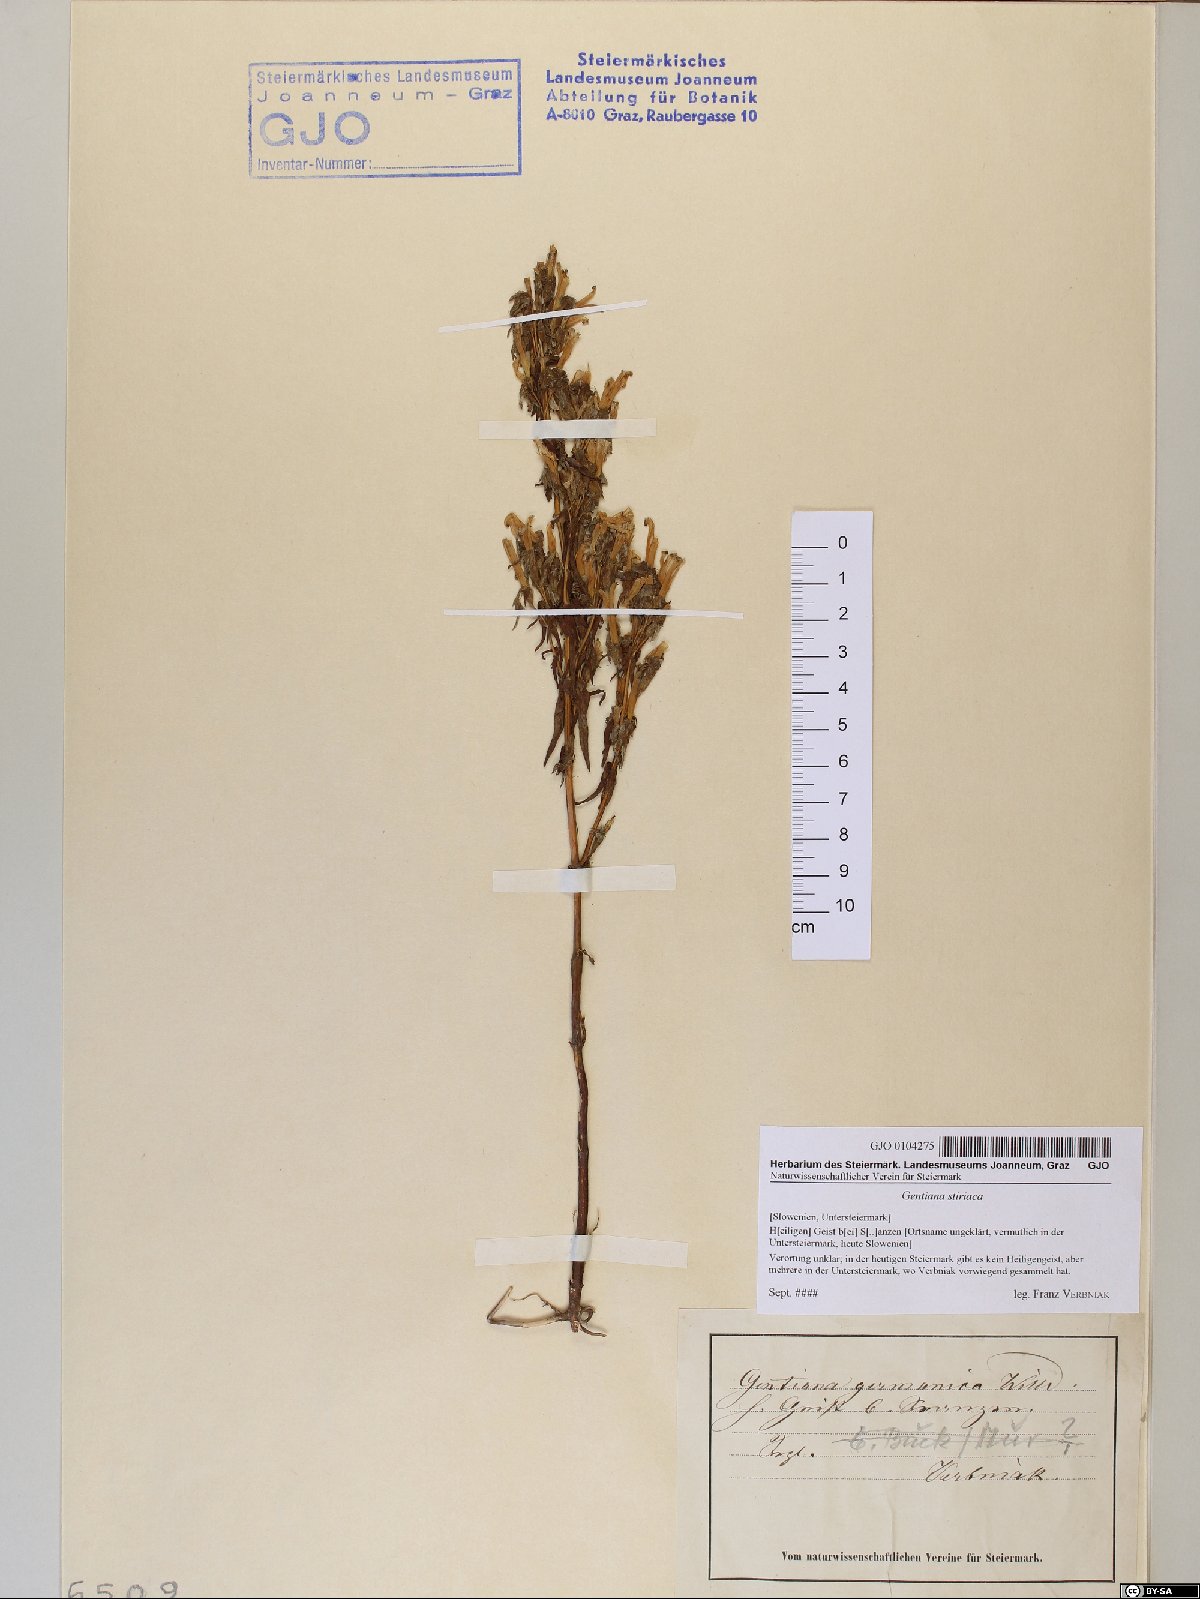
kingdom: Plantae
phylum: Tracheophyta
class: Magnoliopsida
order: Gentianales
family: Gentianaceae
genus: Gentianella
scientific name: Gentianella rhaetica
